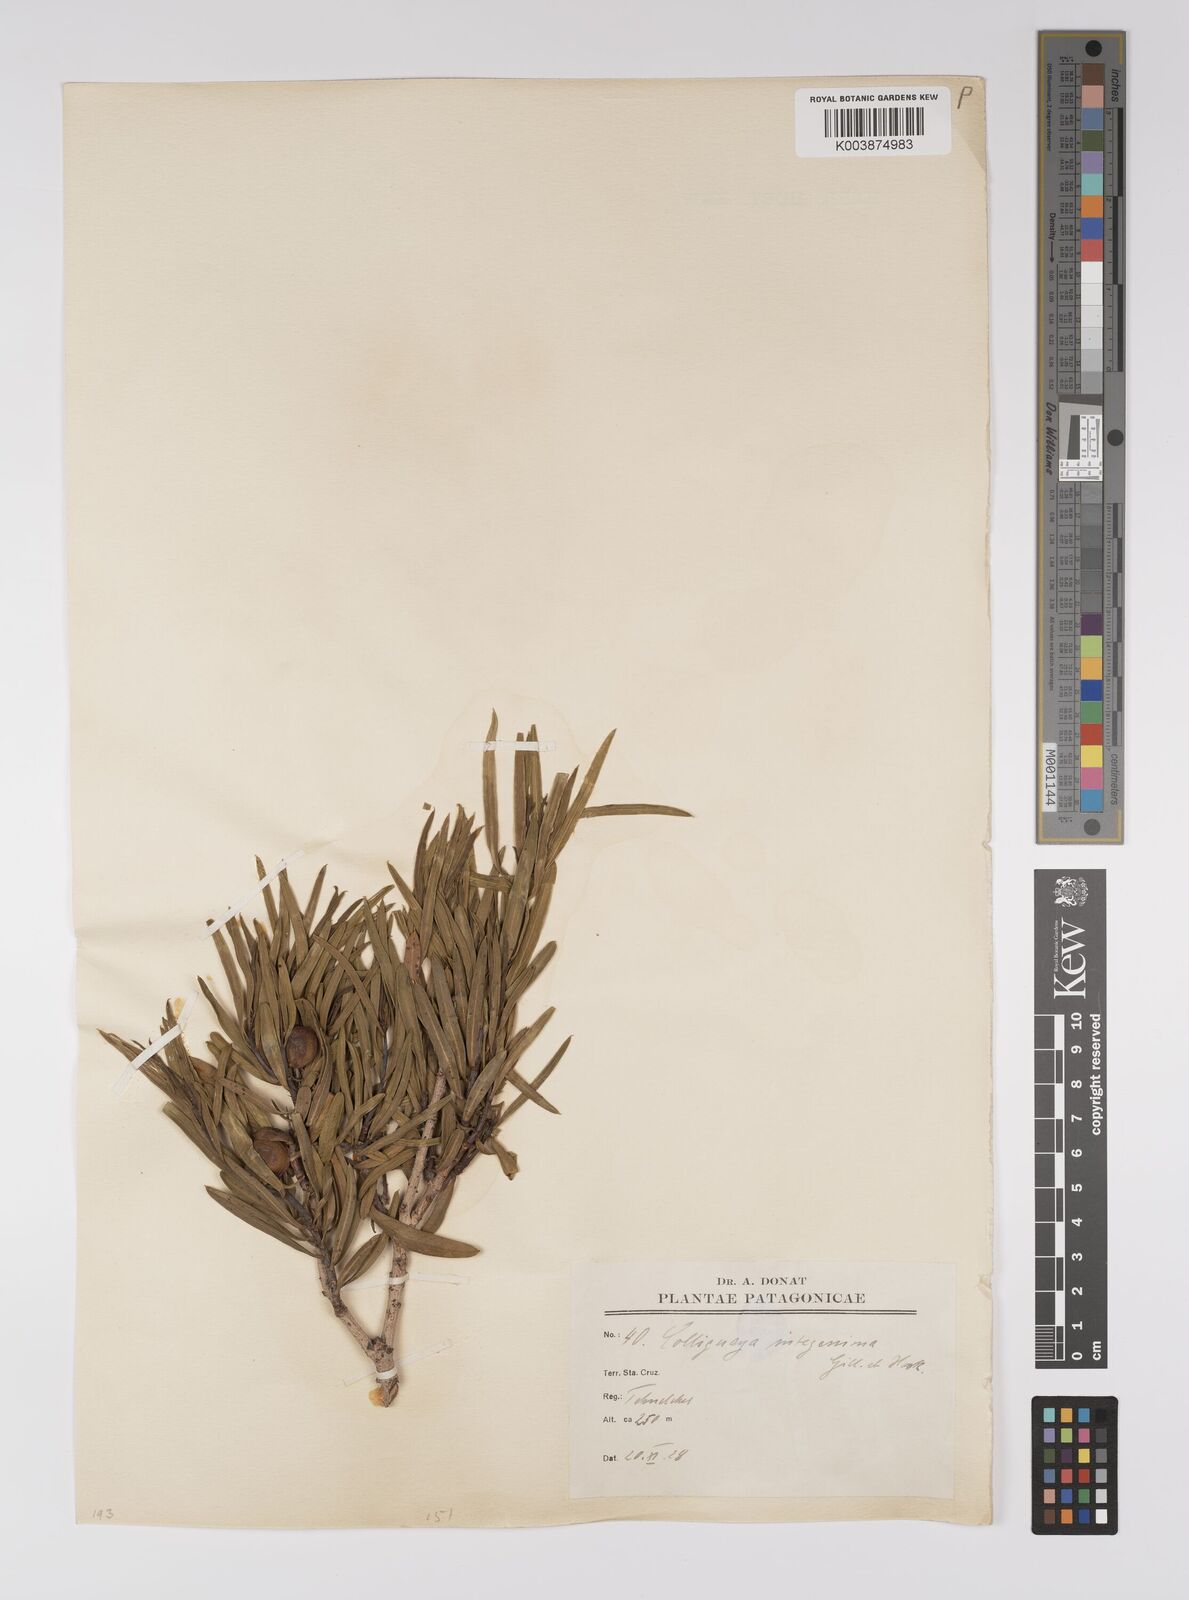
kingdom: Plantae
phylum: Tracheophyta
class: Magnoliopsida
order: Malpighiales
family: Euphorbiaceae
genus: Colliguaja
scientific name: Colliguaja integerrima
